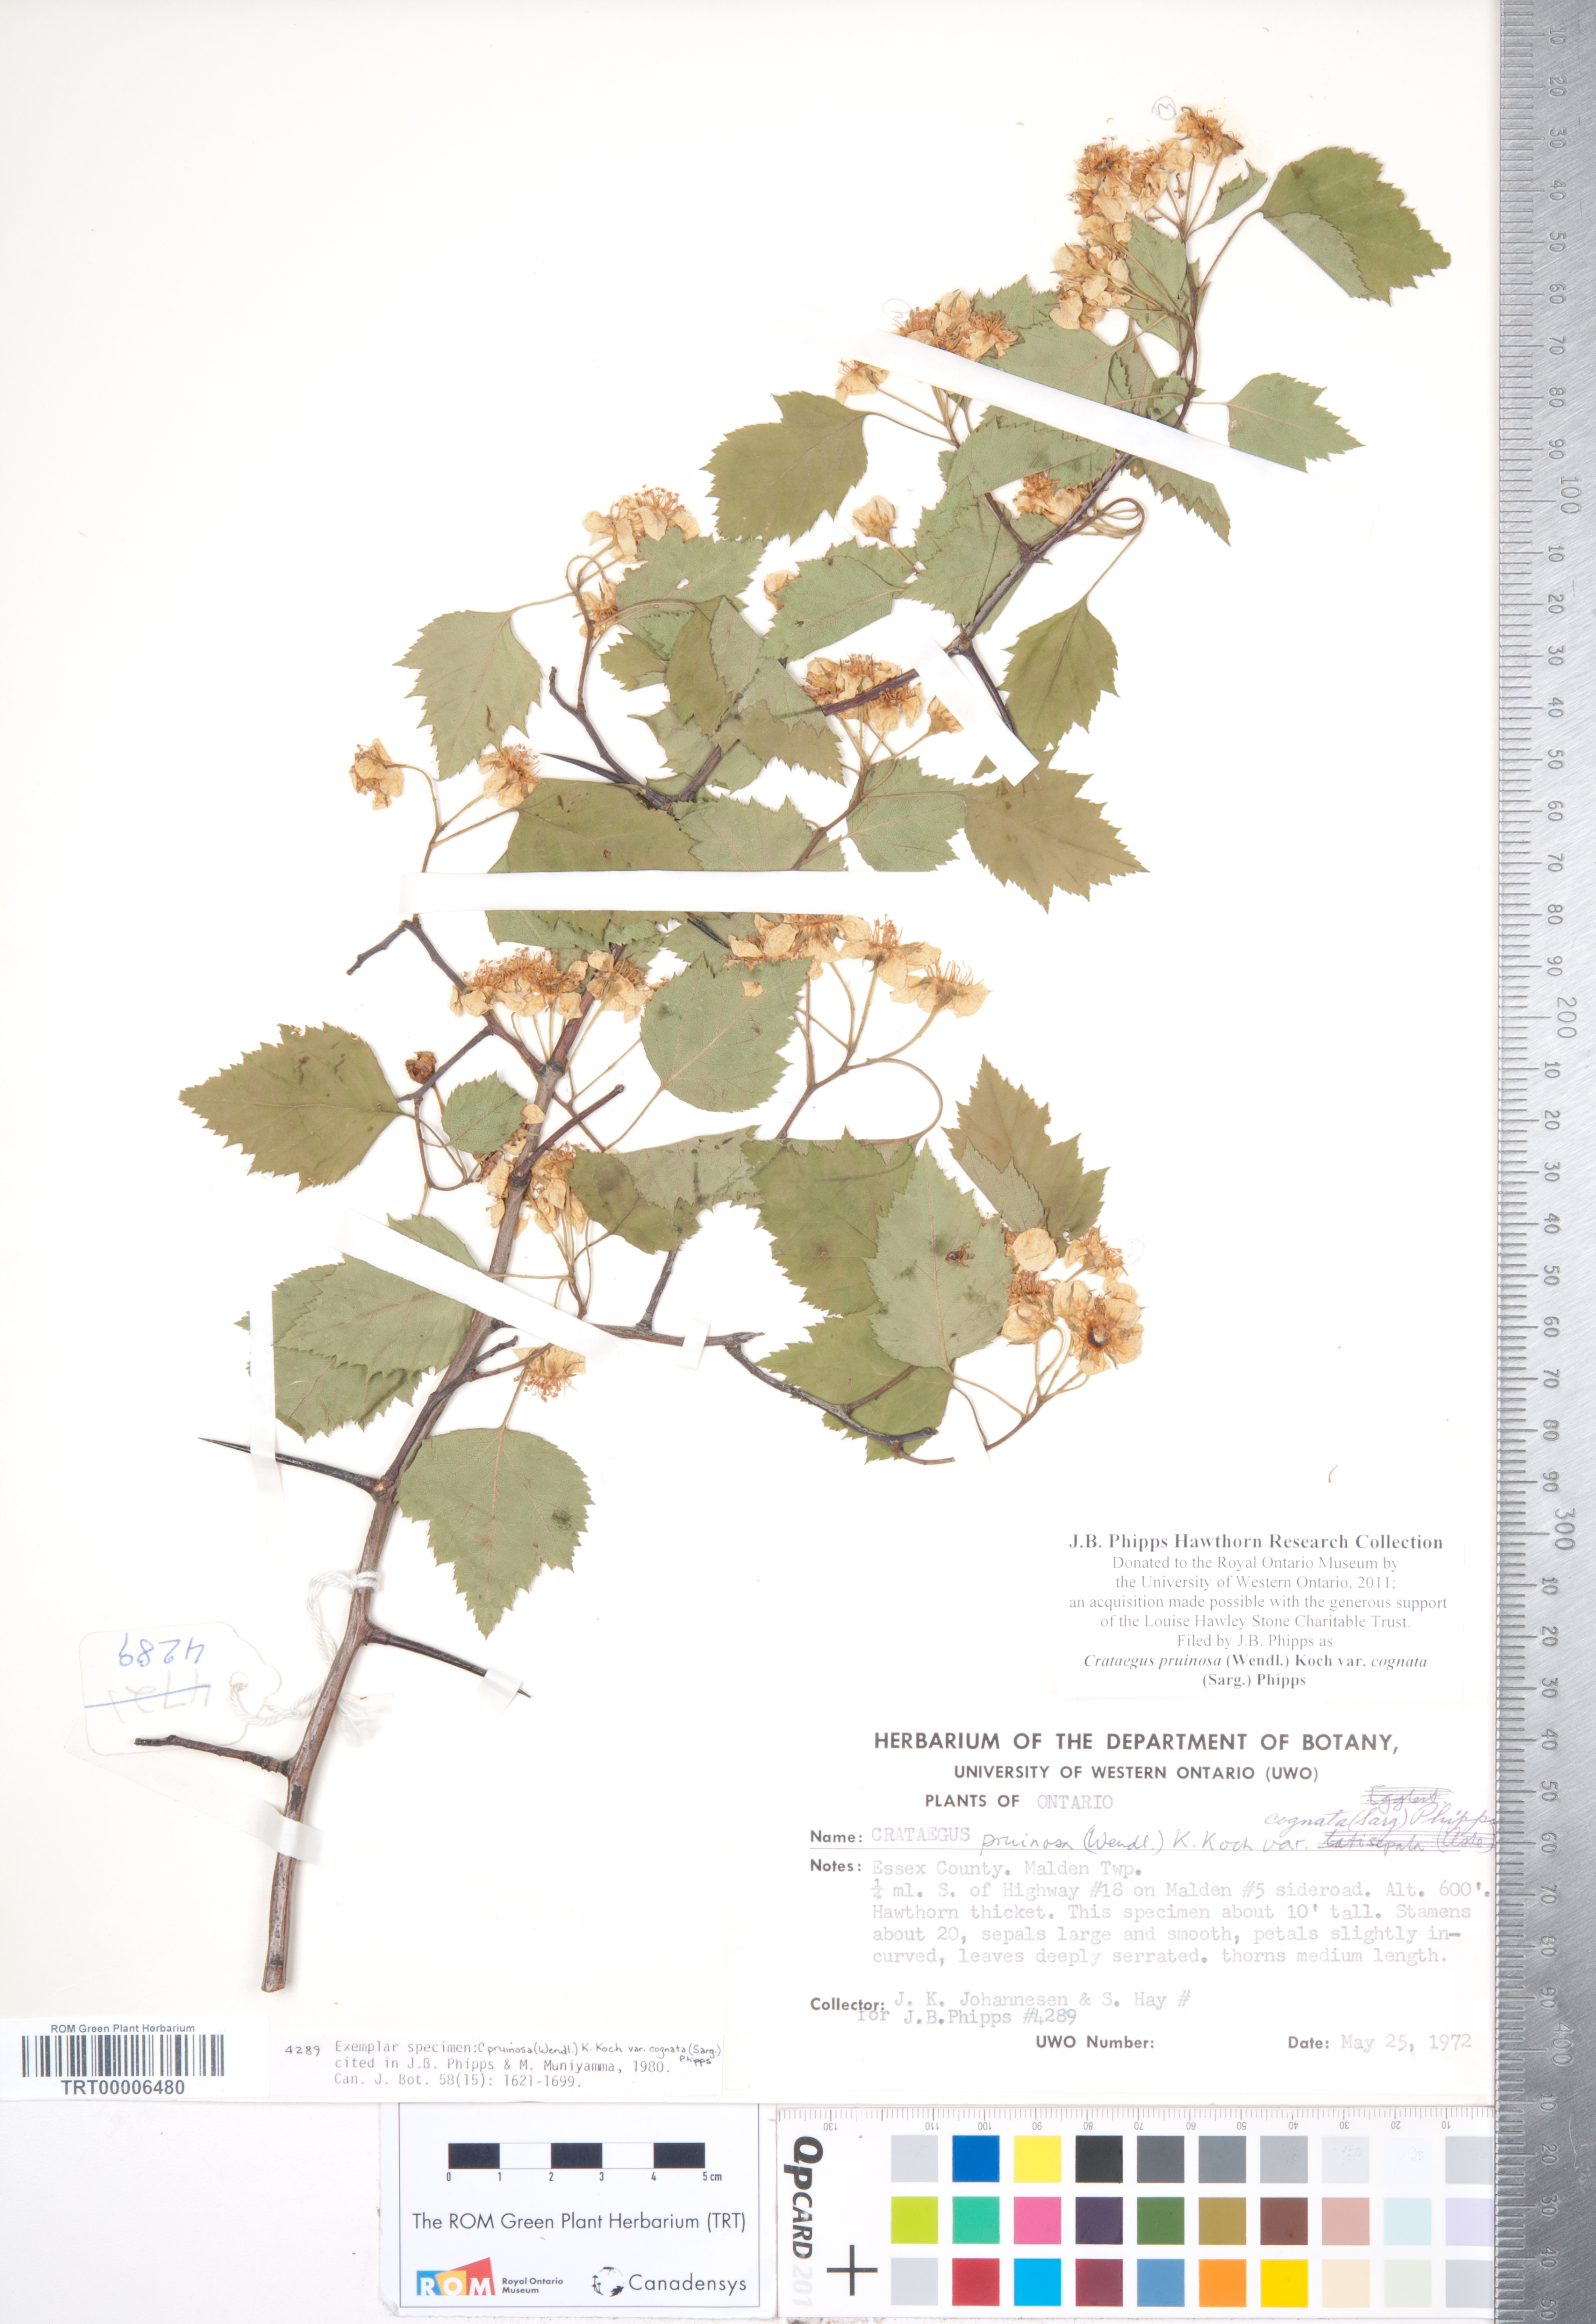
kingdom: Plantae
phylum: Tracheophyta
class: Magnoliopsida
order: Rosales
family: Rosaceae
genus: Crataegus
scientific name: Crataegus
